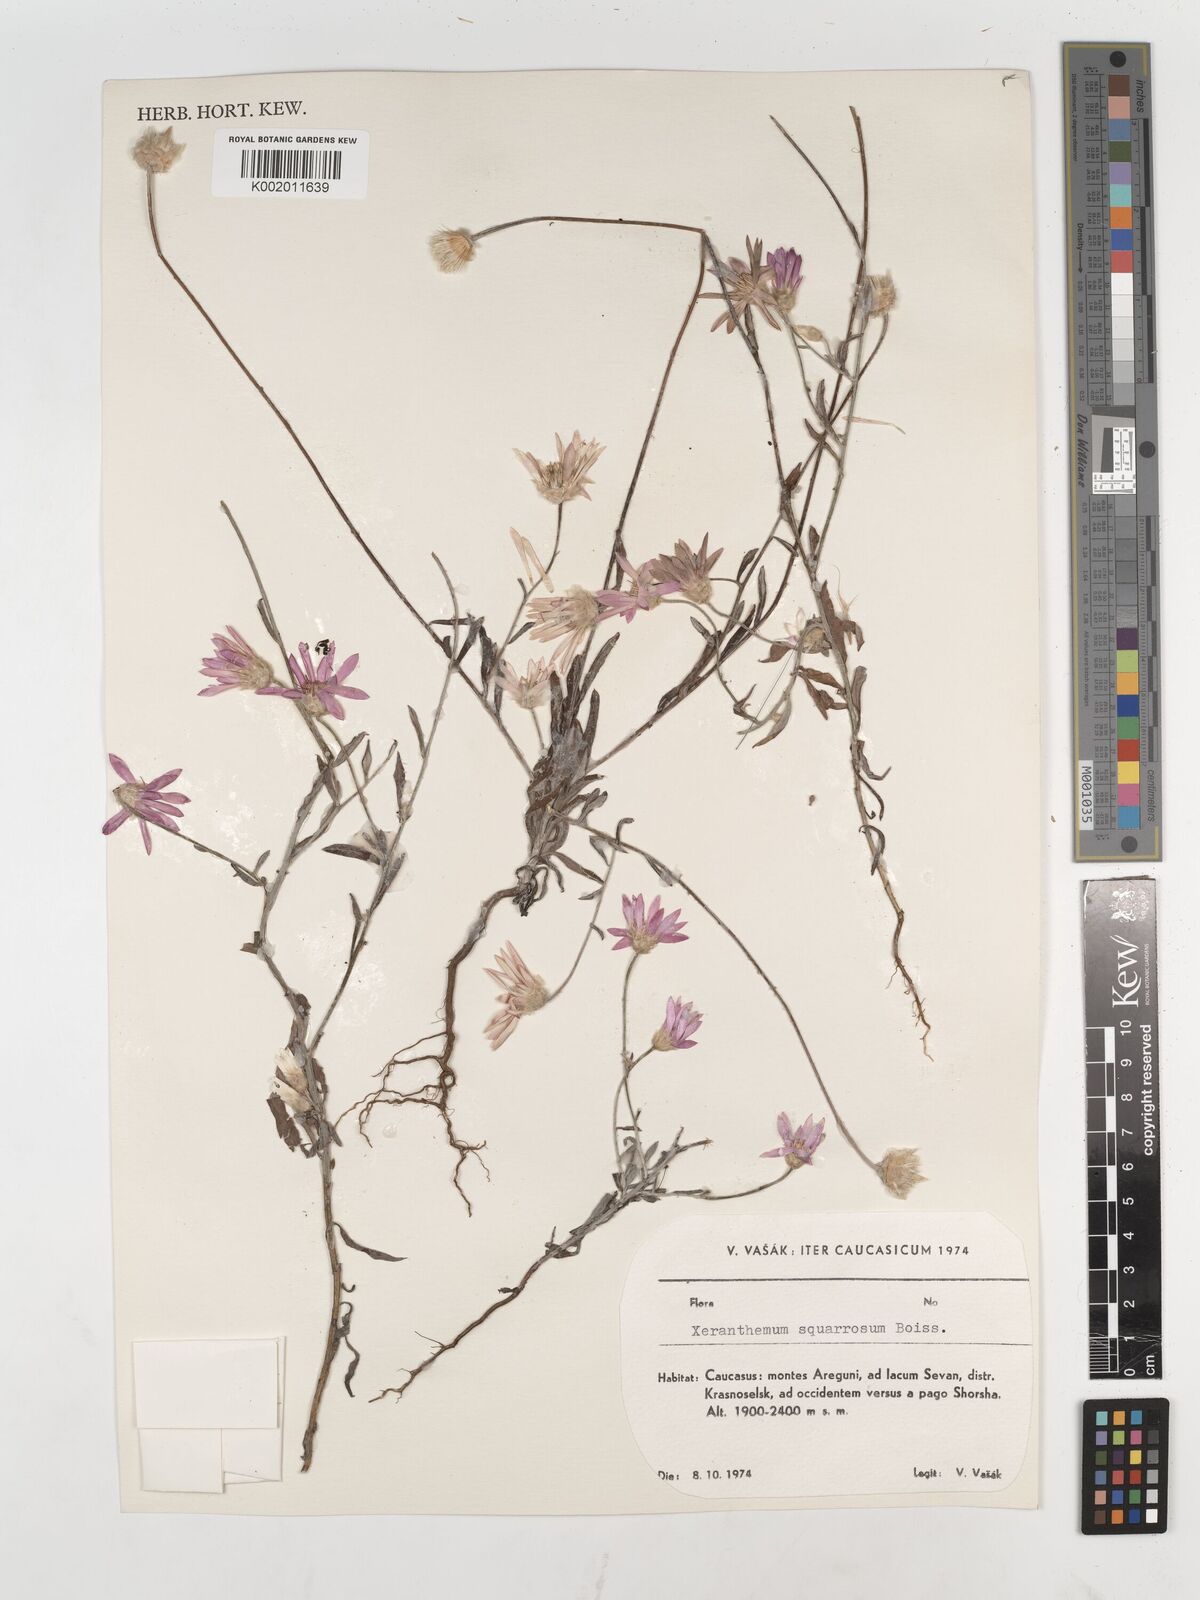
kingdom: Plantae
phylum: Tracheophyta
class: Magnoliopsida
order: Asterales
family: Asteraceae
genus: Xeranthemum
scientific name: Xeranthemum squarrosum
